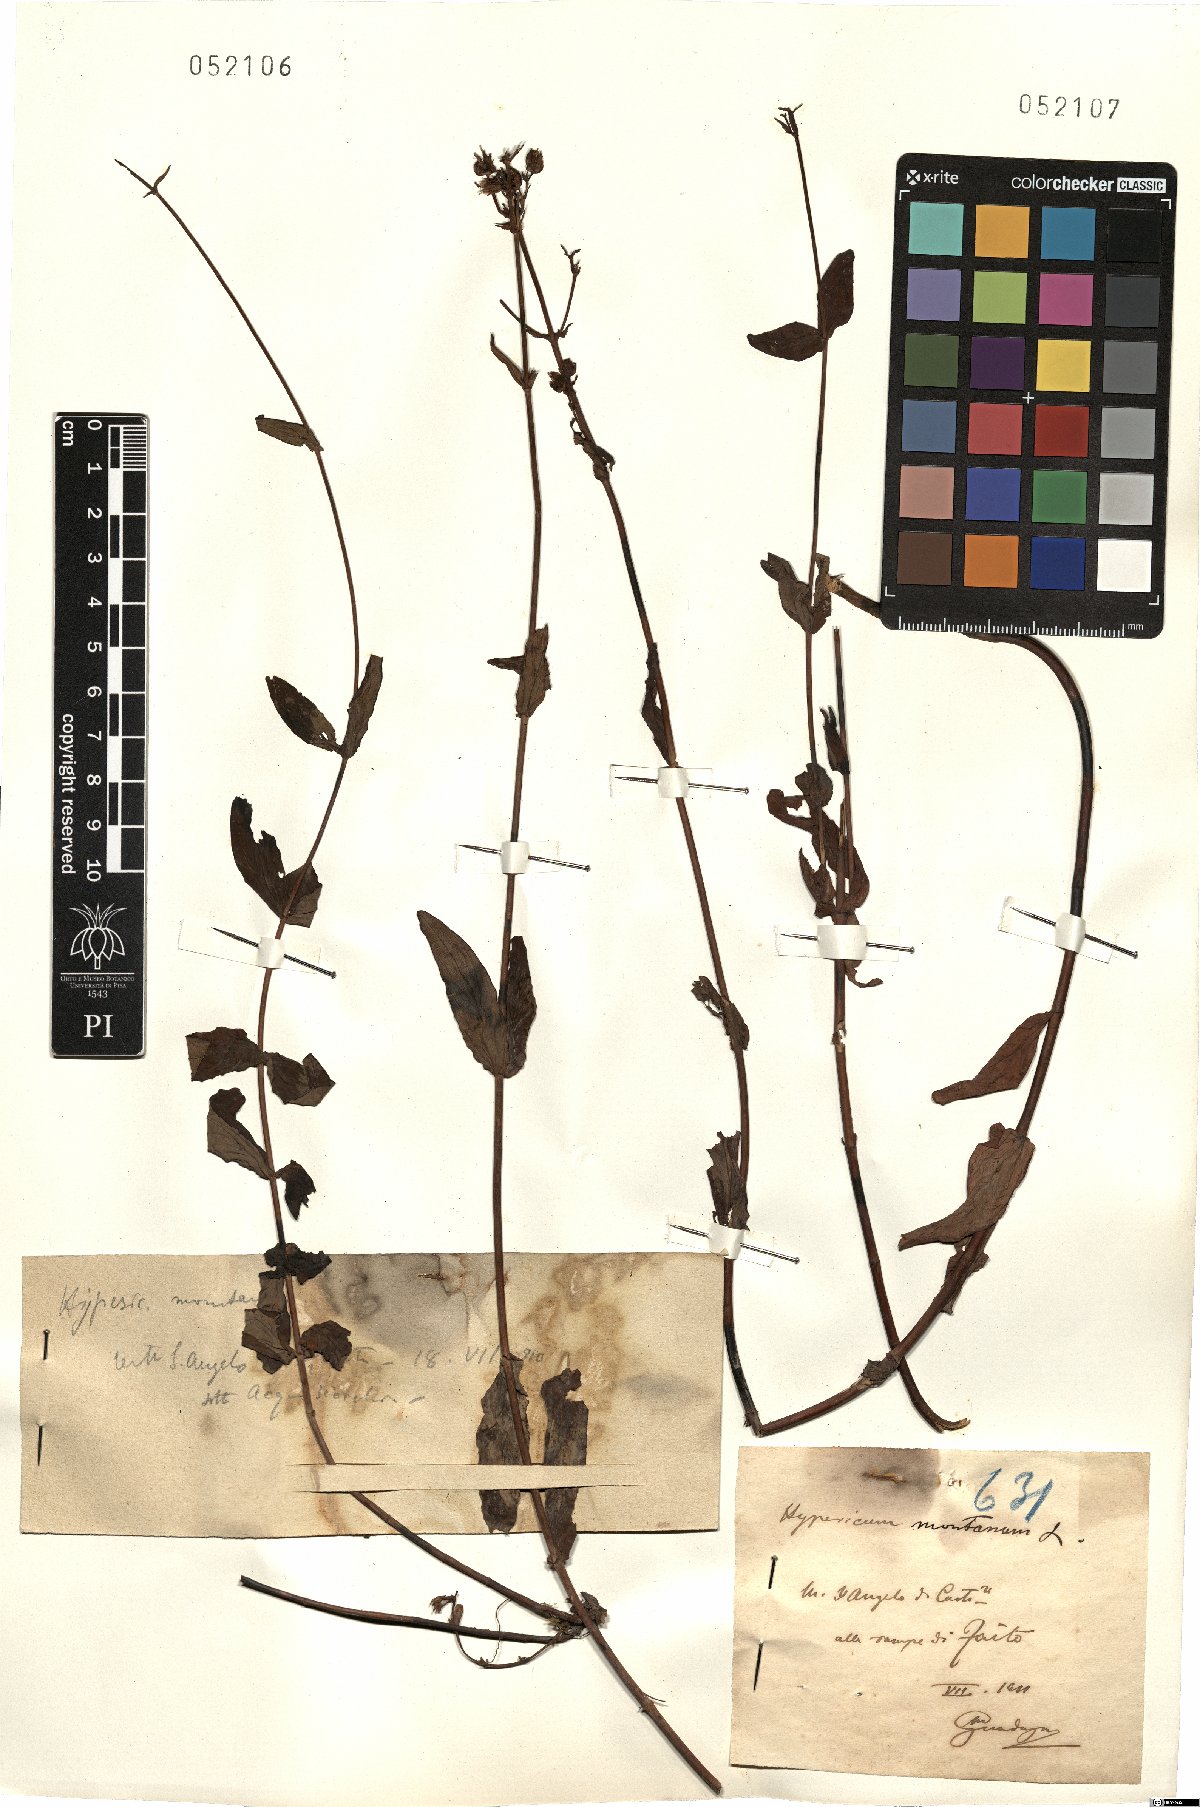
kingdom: Plantae
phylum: Tracheophyta
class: Magnoliopsida
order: Malpighiales
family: Hypericaceae
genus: Hypericum
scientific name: Hypericum montanum
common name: Pale st. john's-wort
